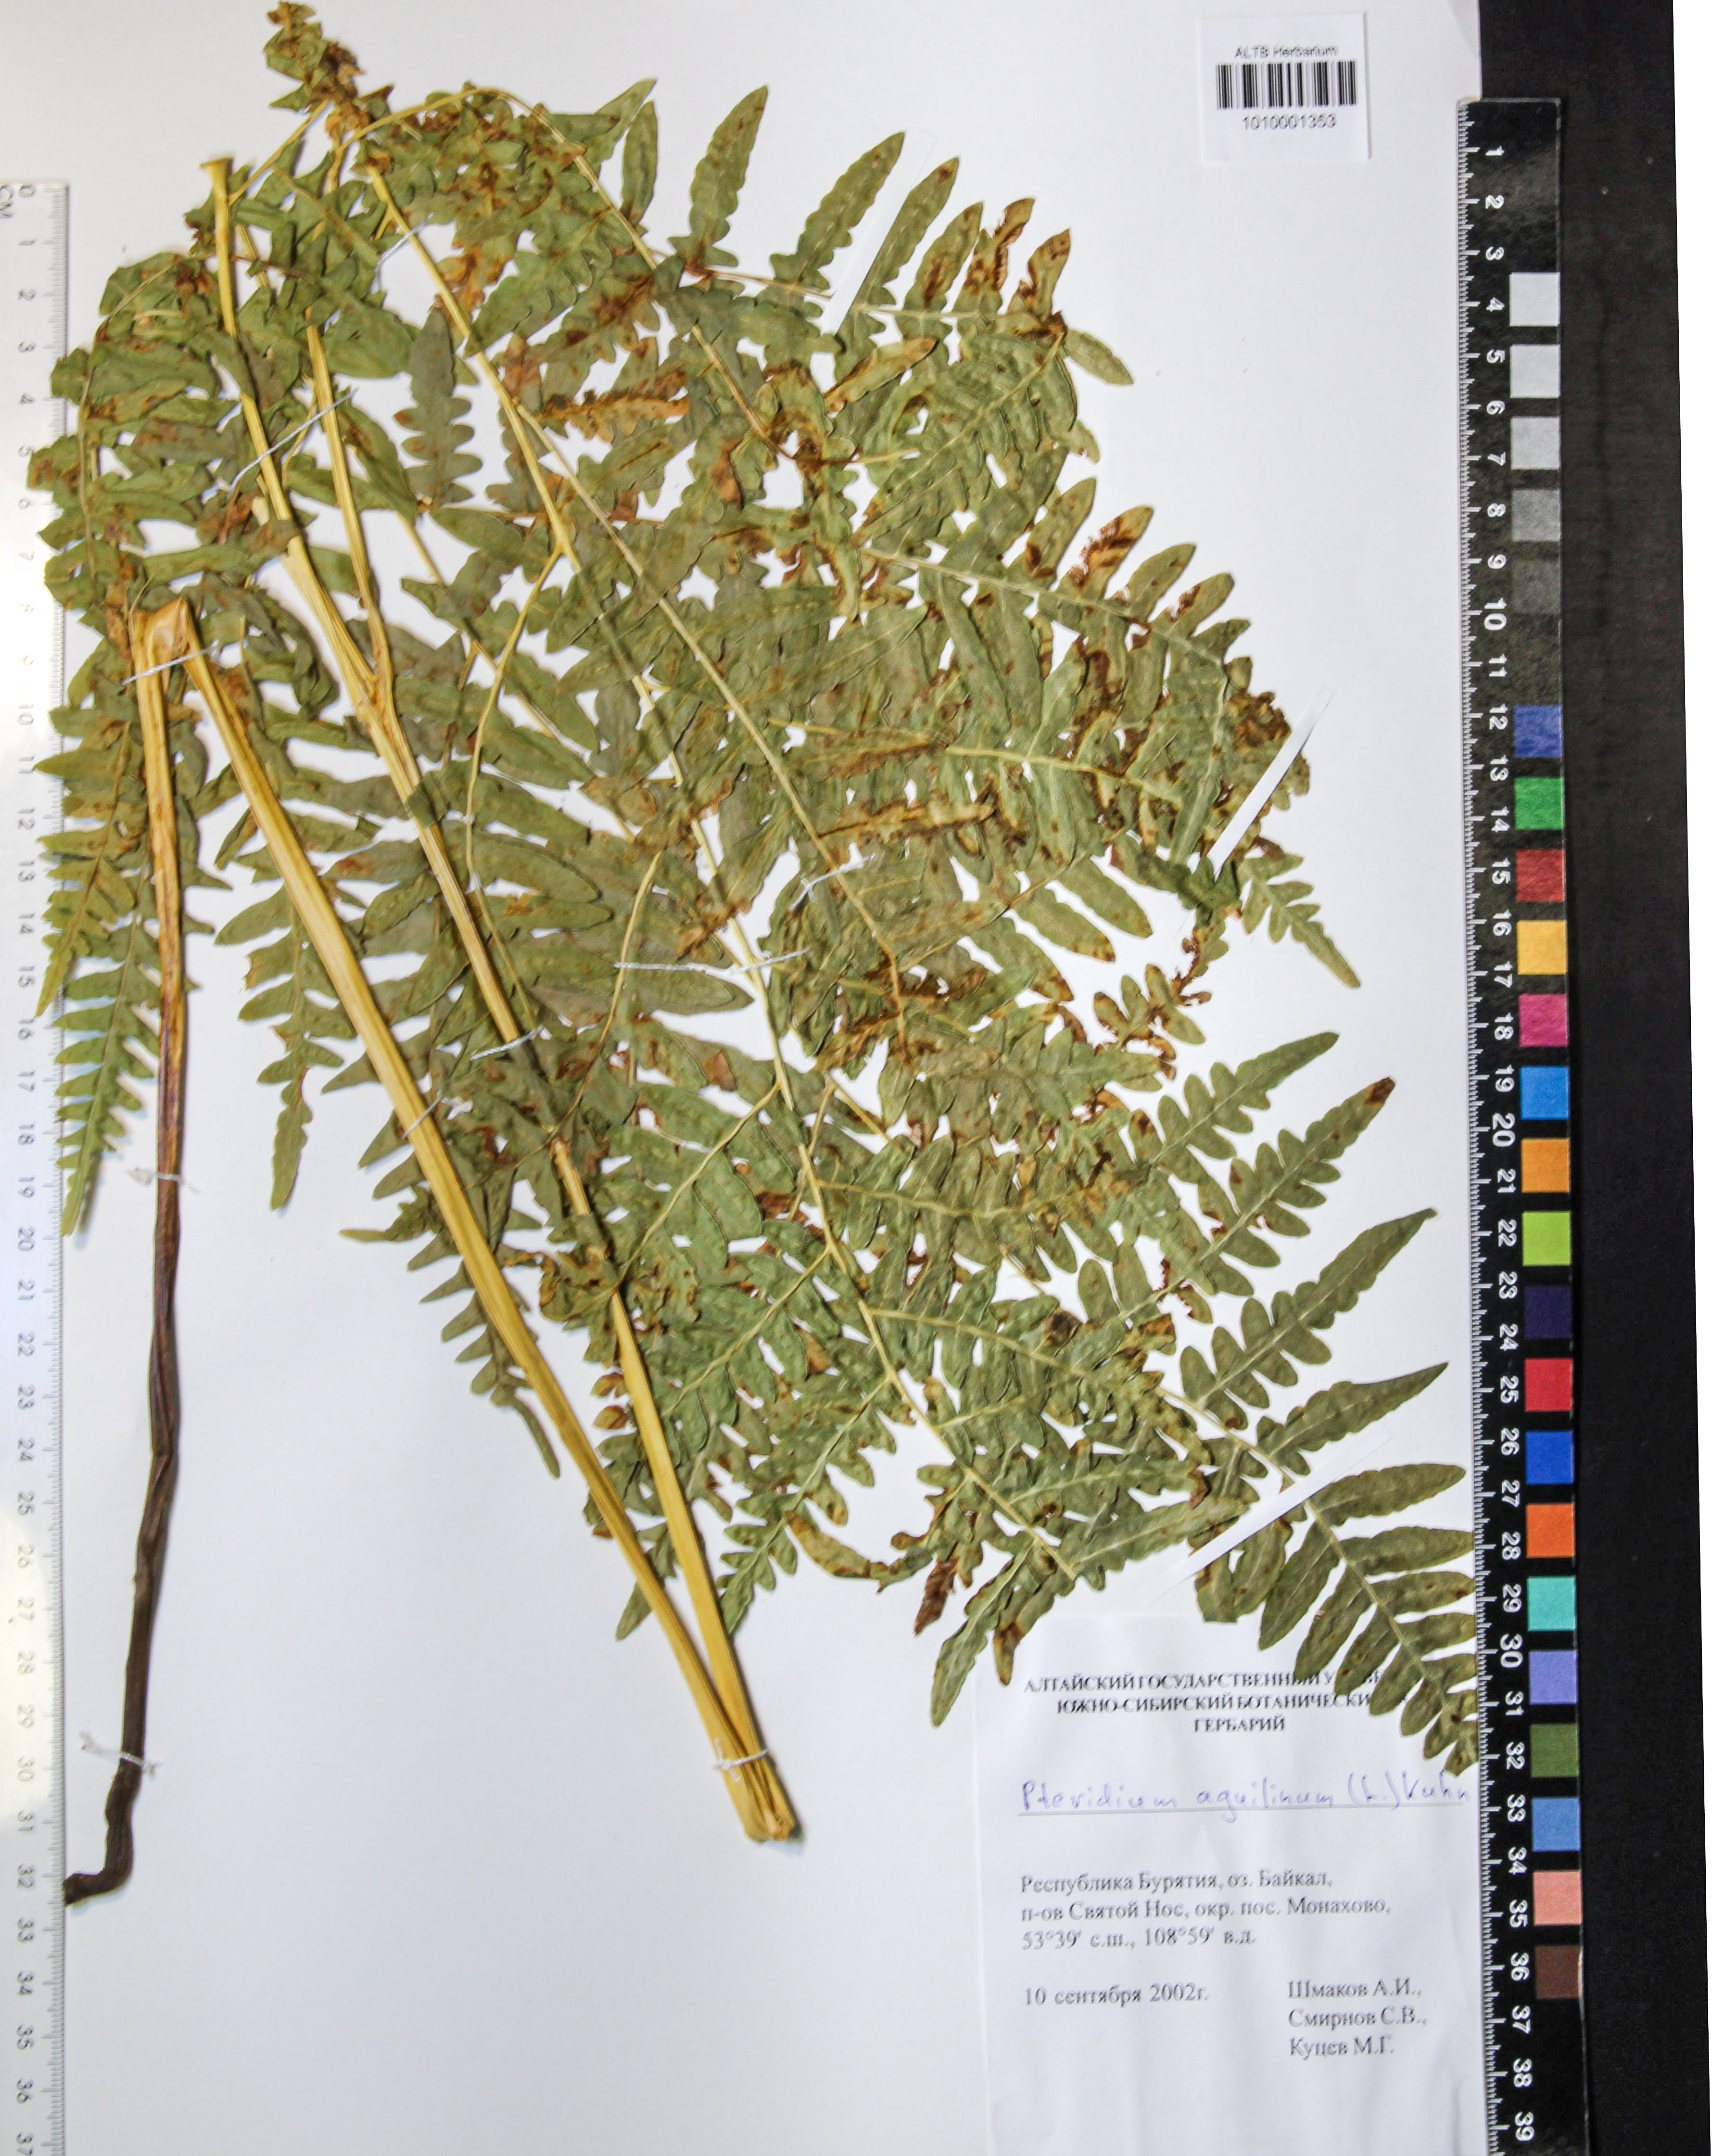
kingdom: Plantae
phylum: Tracheophyta
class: Polypodiopsida
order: Polypodiales
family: Dennstaedtiaceae
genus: Pteridium
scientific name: Pteridium aquilinum
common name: Bracken
